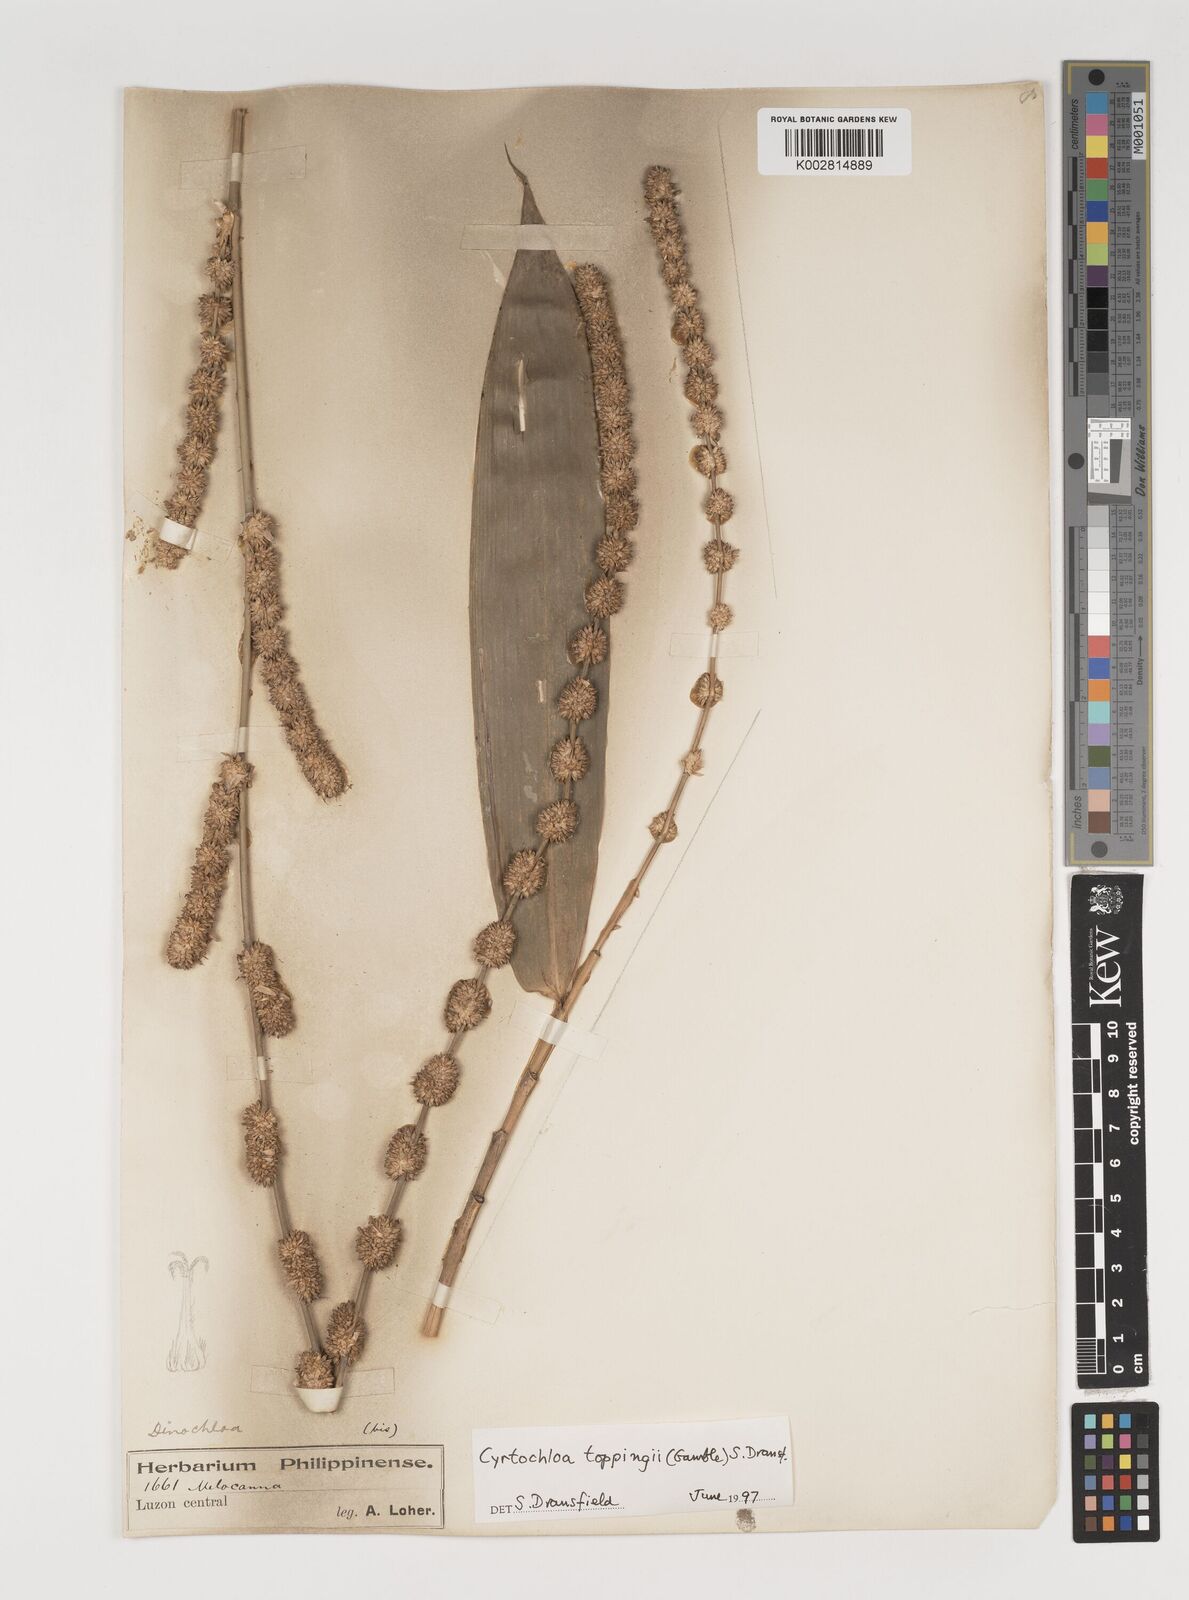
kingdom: Plantae
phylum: Tracheophyta
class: Liliopsida
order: Poales
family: Poaceae
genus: Cyrtochloa
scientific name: Cyrtochloa toppingii
